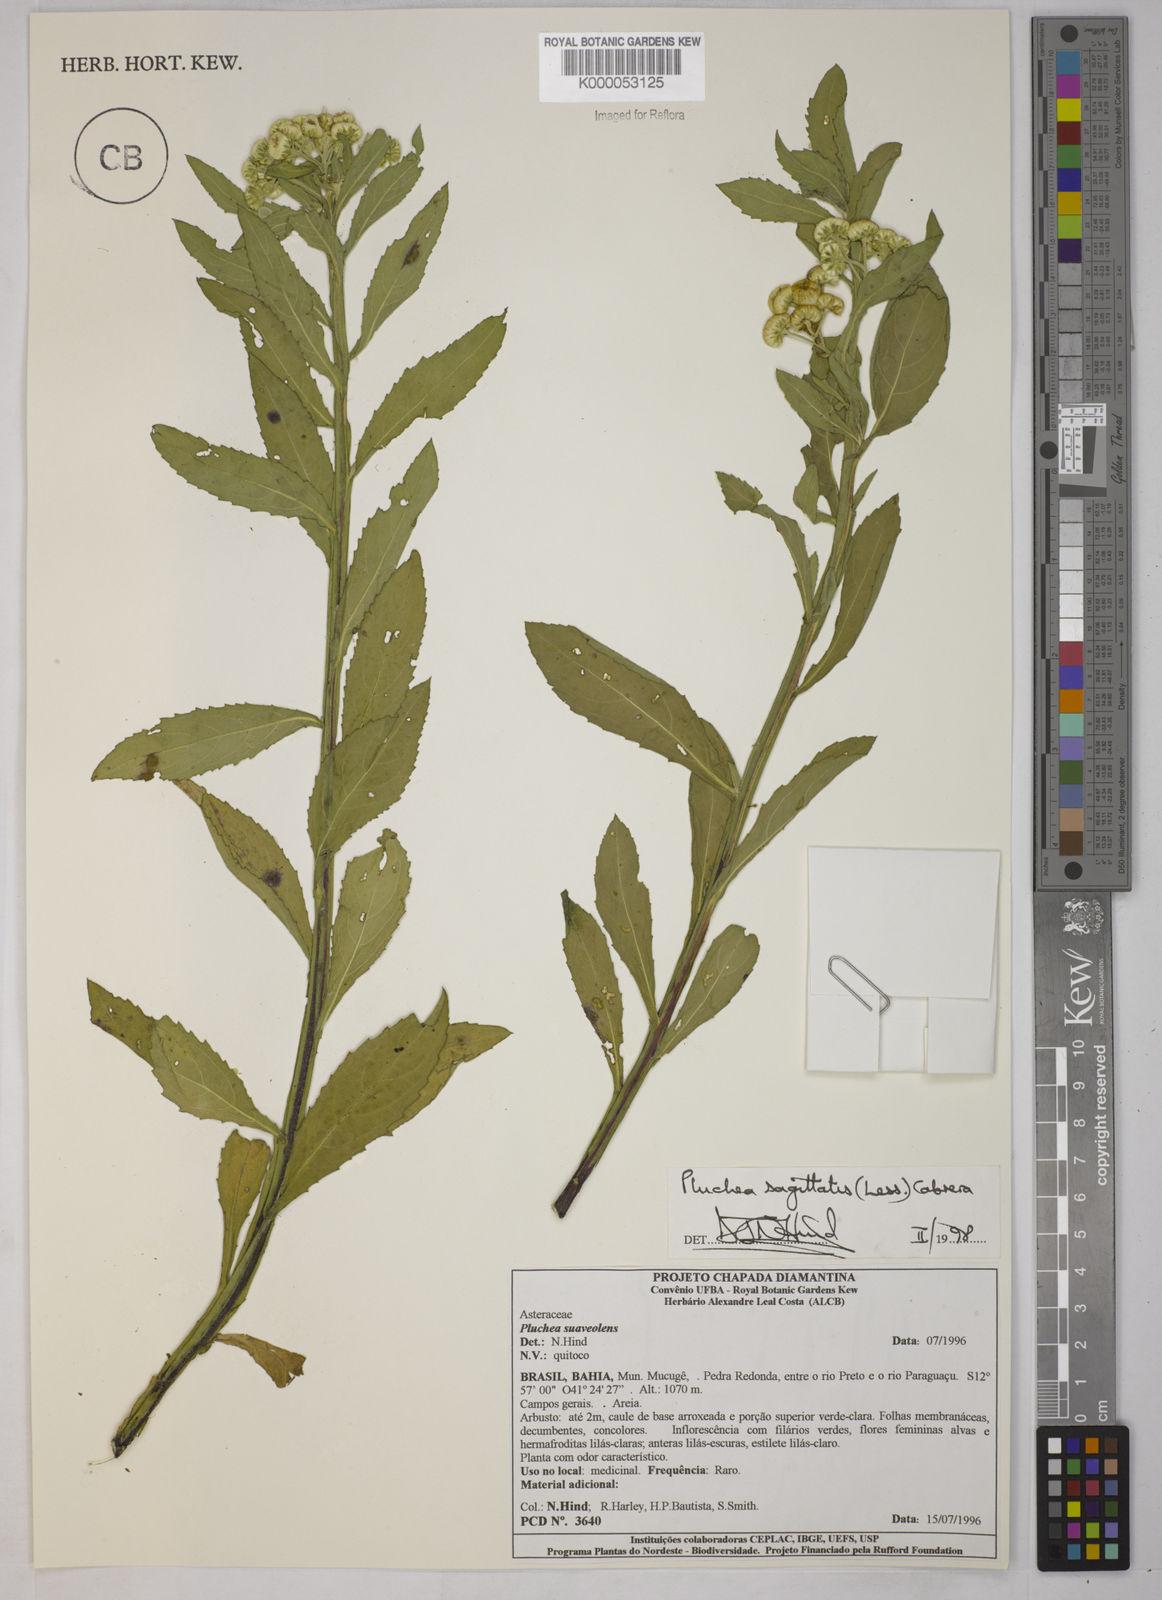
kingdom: Plantae
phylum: Tracheophyta
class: Magnoliopsida
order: Asterales
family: Asteraceae
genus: Pluchea
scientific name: Pluchea sagittalis
